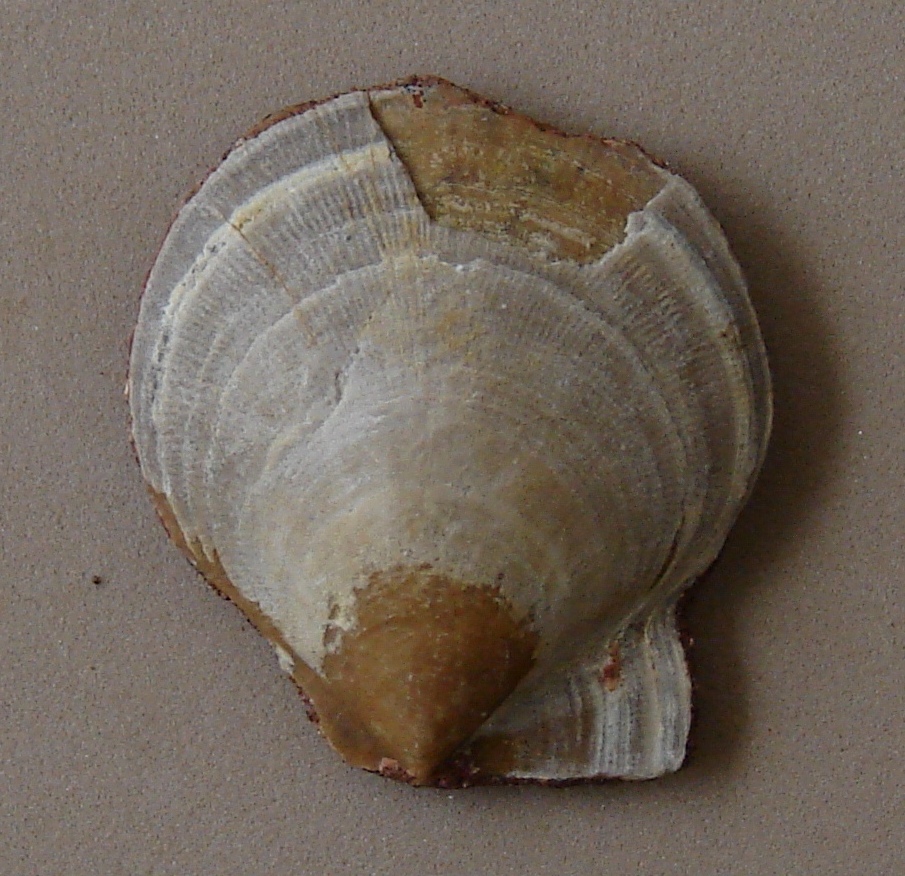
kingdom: Animalia
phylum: Mollusca
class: Bivalvia
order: Pectinida
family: Pectinidae
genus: Camptonectes
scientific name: Camptonectes auritus
